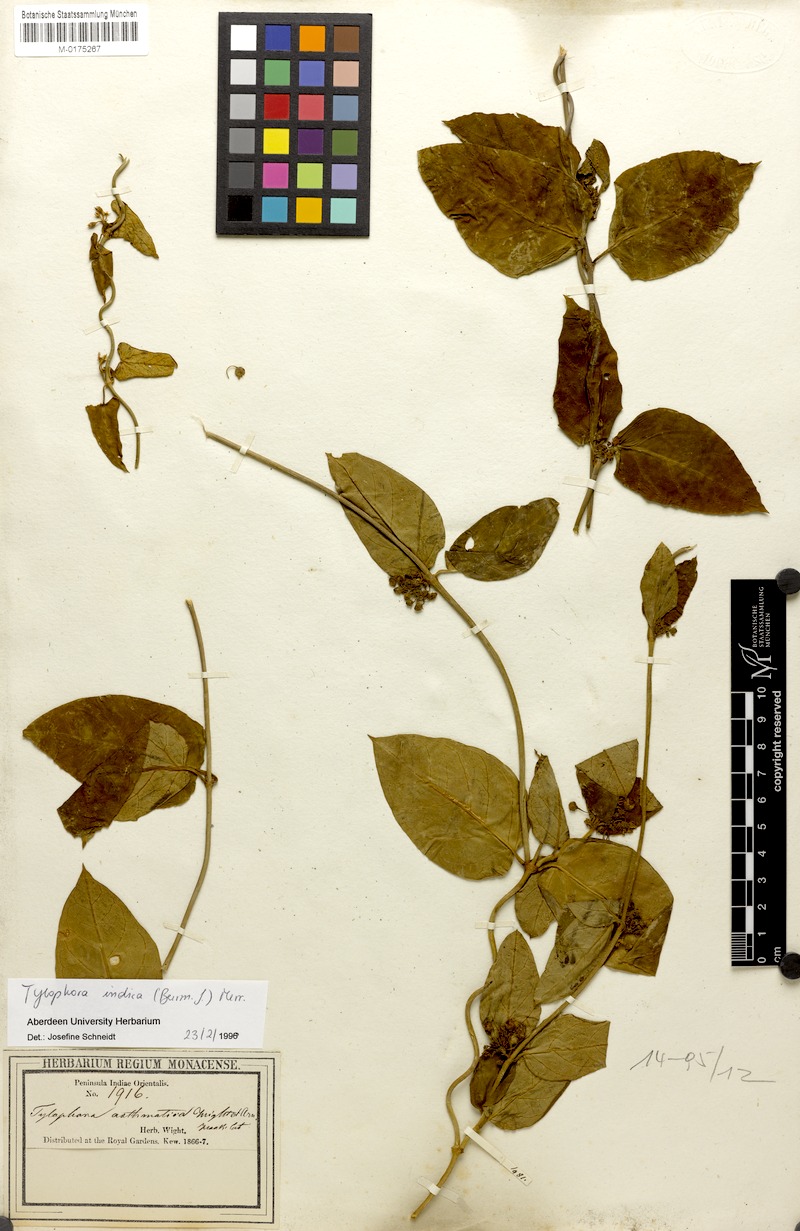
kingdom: Plantae
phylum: Tracheophyta
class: Magnoliopsida
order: Gentianales
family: Apocynaceae
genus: Vincetoxicum
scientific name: Vincetoxicum indicum
